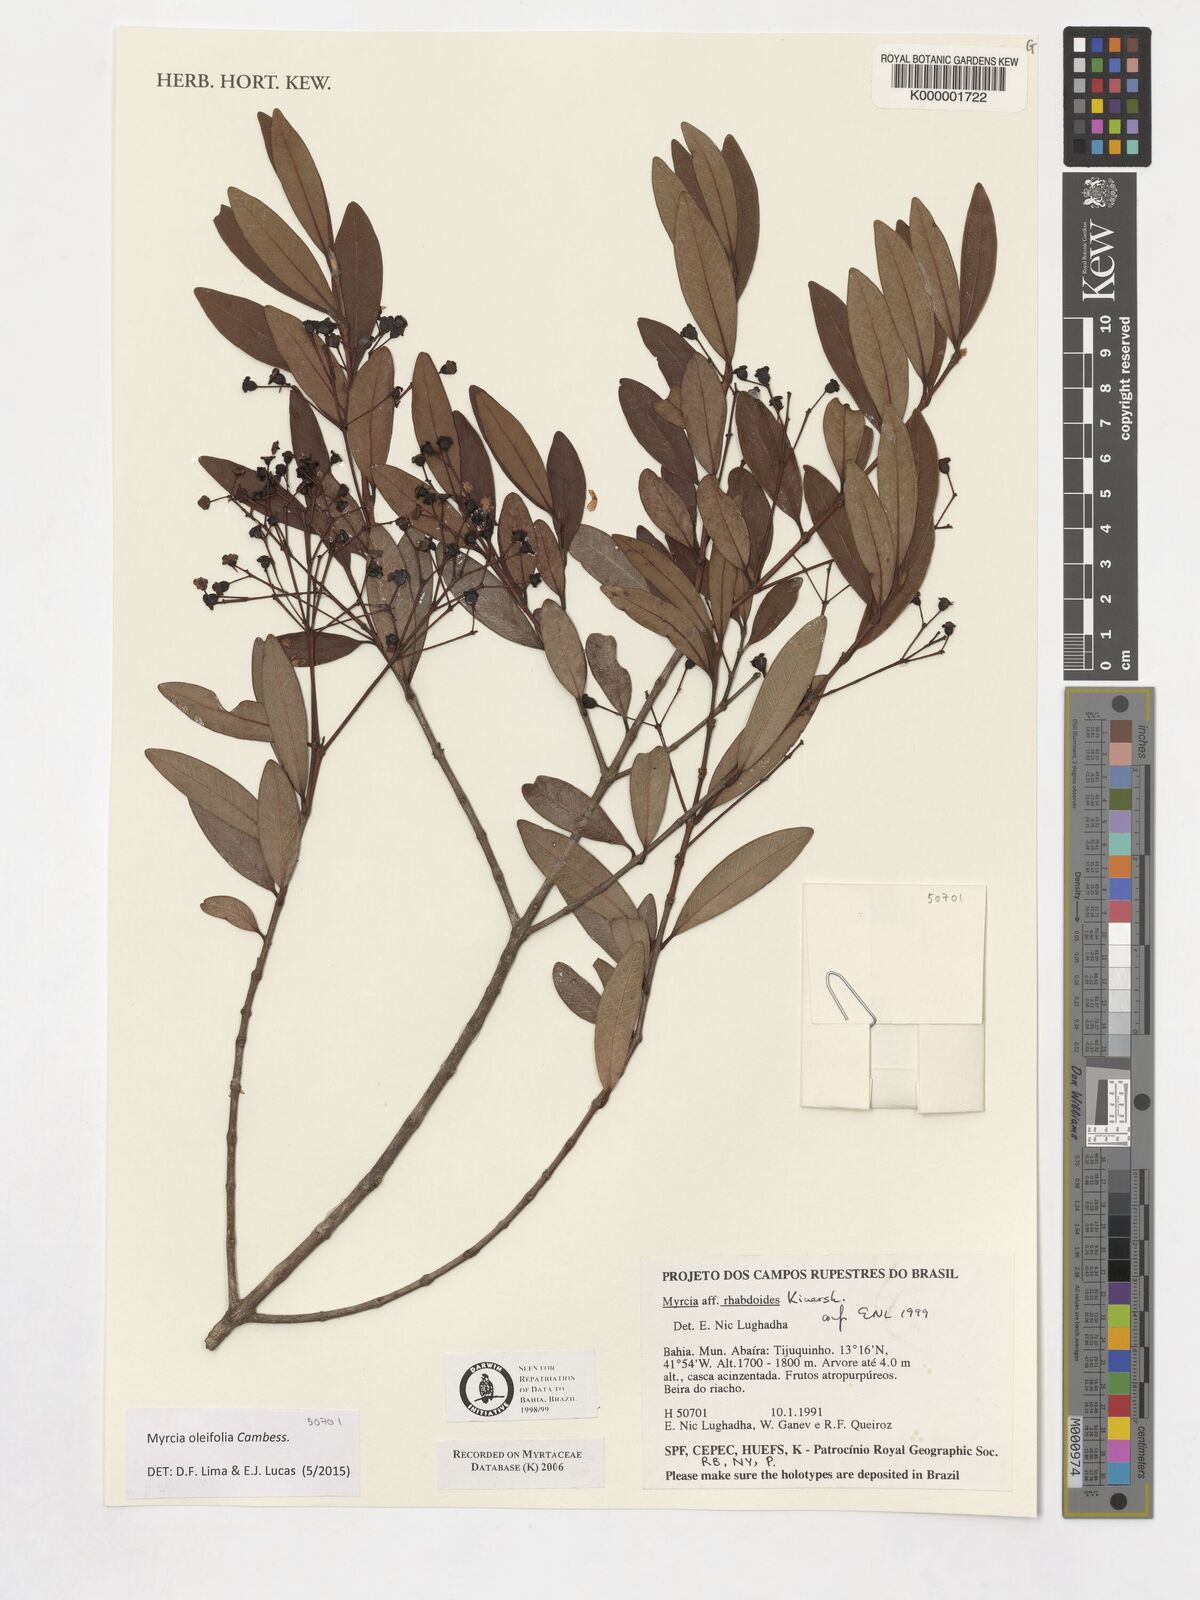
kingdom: Plantae
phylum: Tracheophyta
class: Magnoliopsida
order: Myrtales
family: Myrtaceae
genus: Myrcia
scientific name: Myrcia venulosa
